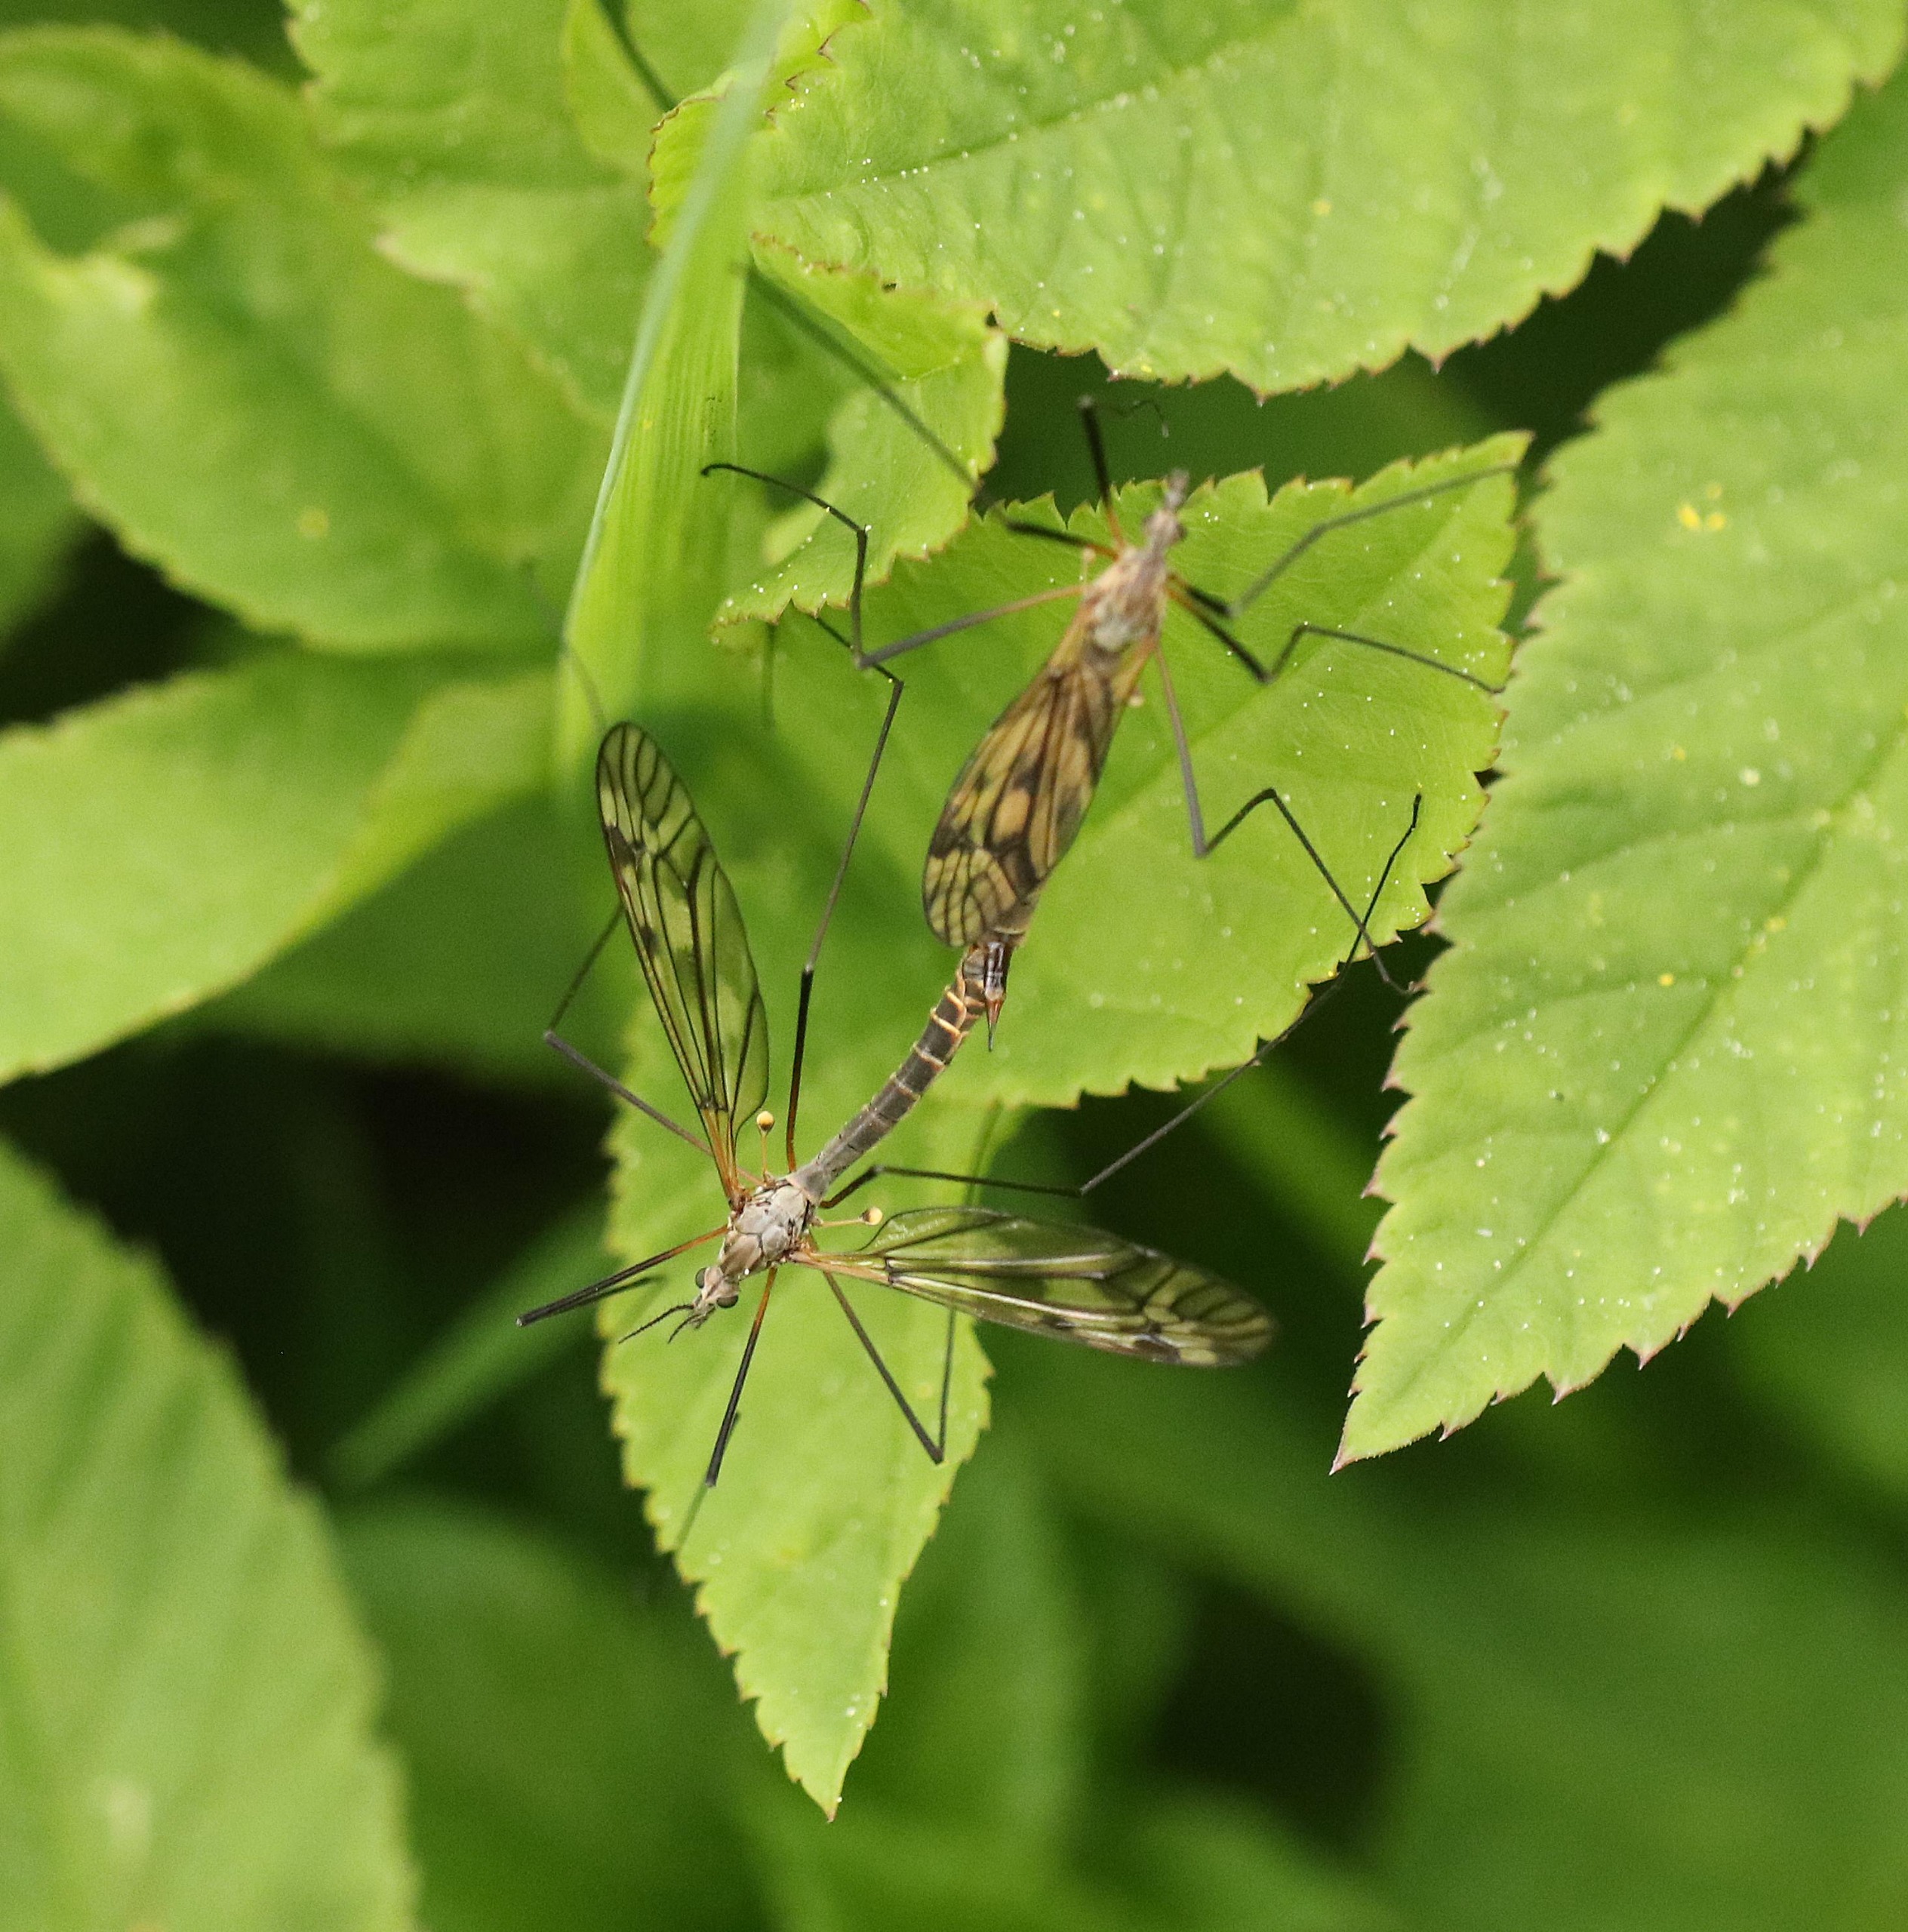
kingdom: Animalia
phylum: Arthropoda
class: Insecta
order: Diptera
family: Tipulidae
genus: Tipula
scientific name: Tipula varipennis
